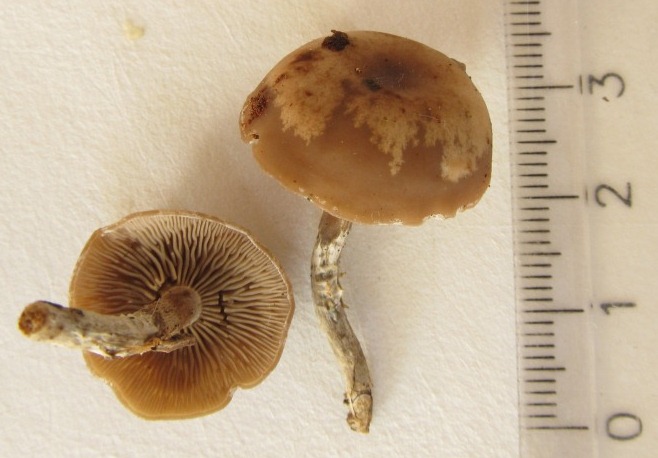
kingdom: Fungi
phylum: Basidiomycota
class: Agaricomycetes
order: Agaricales
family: Lyophyllaceae
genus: Tephrocybe
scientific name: Tephrocybe osmophora
